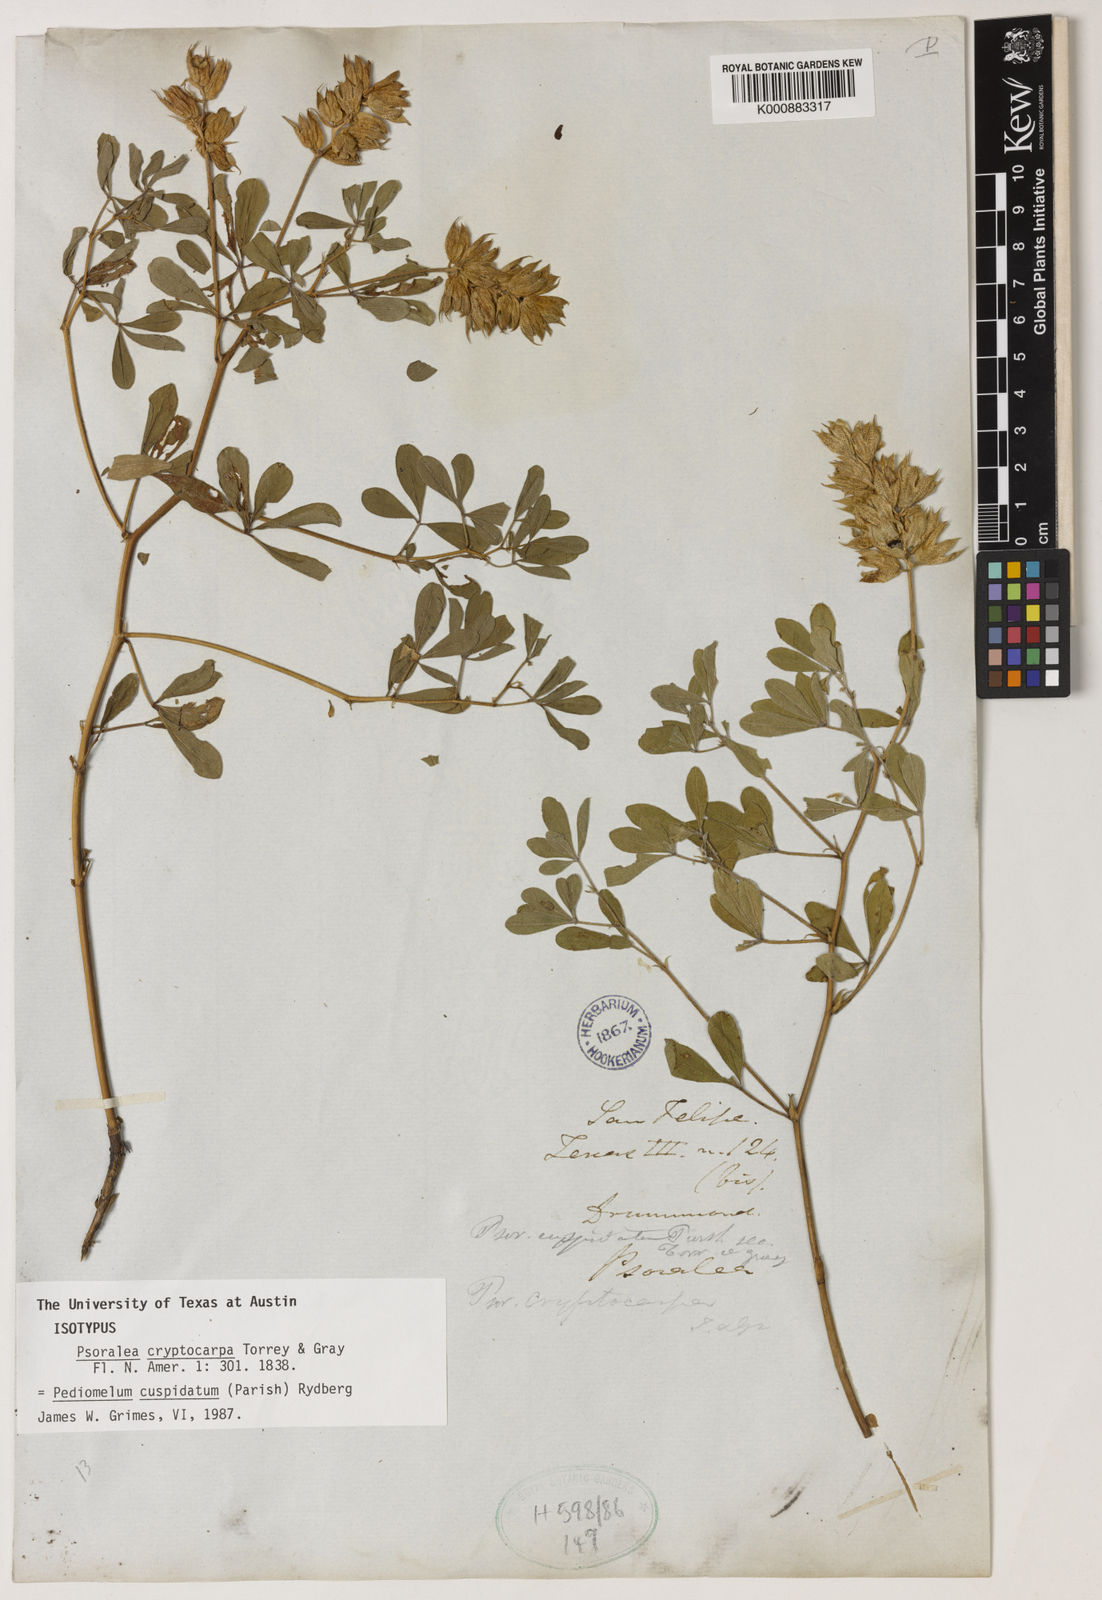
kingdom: Plantae
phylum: Tracheophyta
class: Magnoliopsida
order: Fabales
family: Fabaceae
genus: Pediomelum
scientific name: Pediomelum cuspidatum
